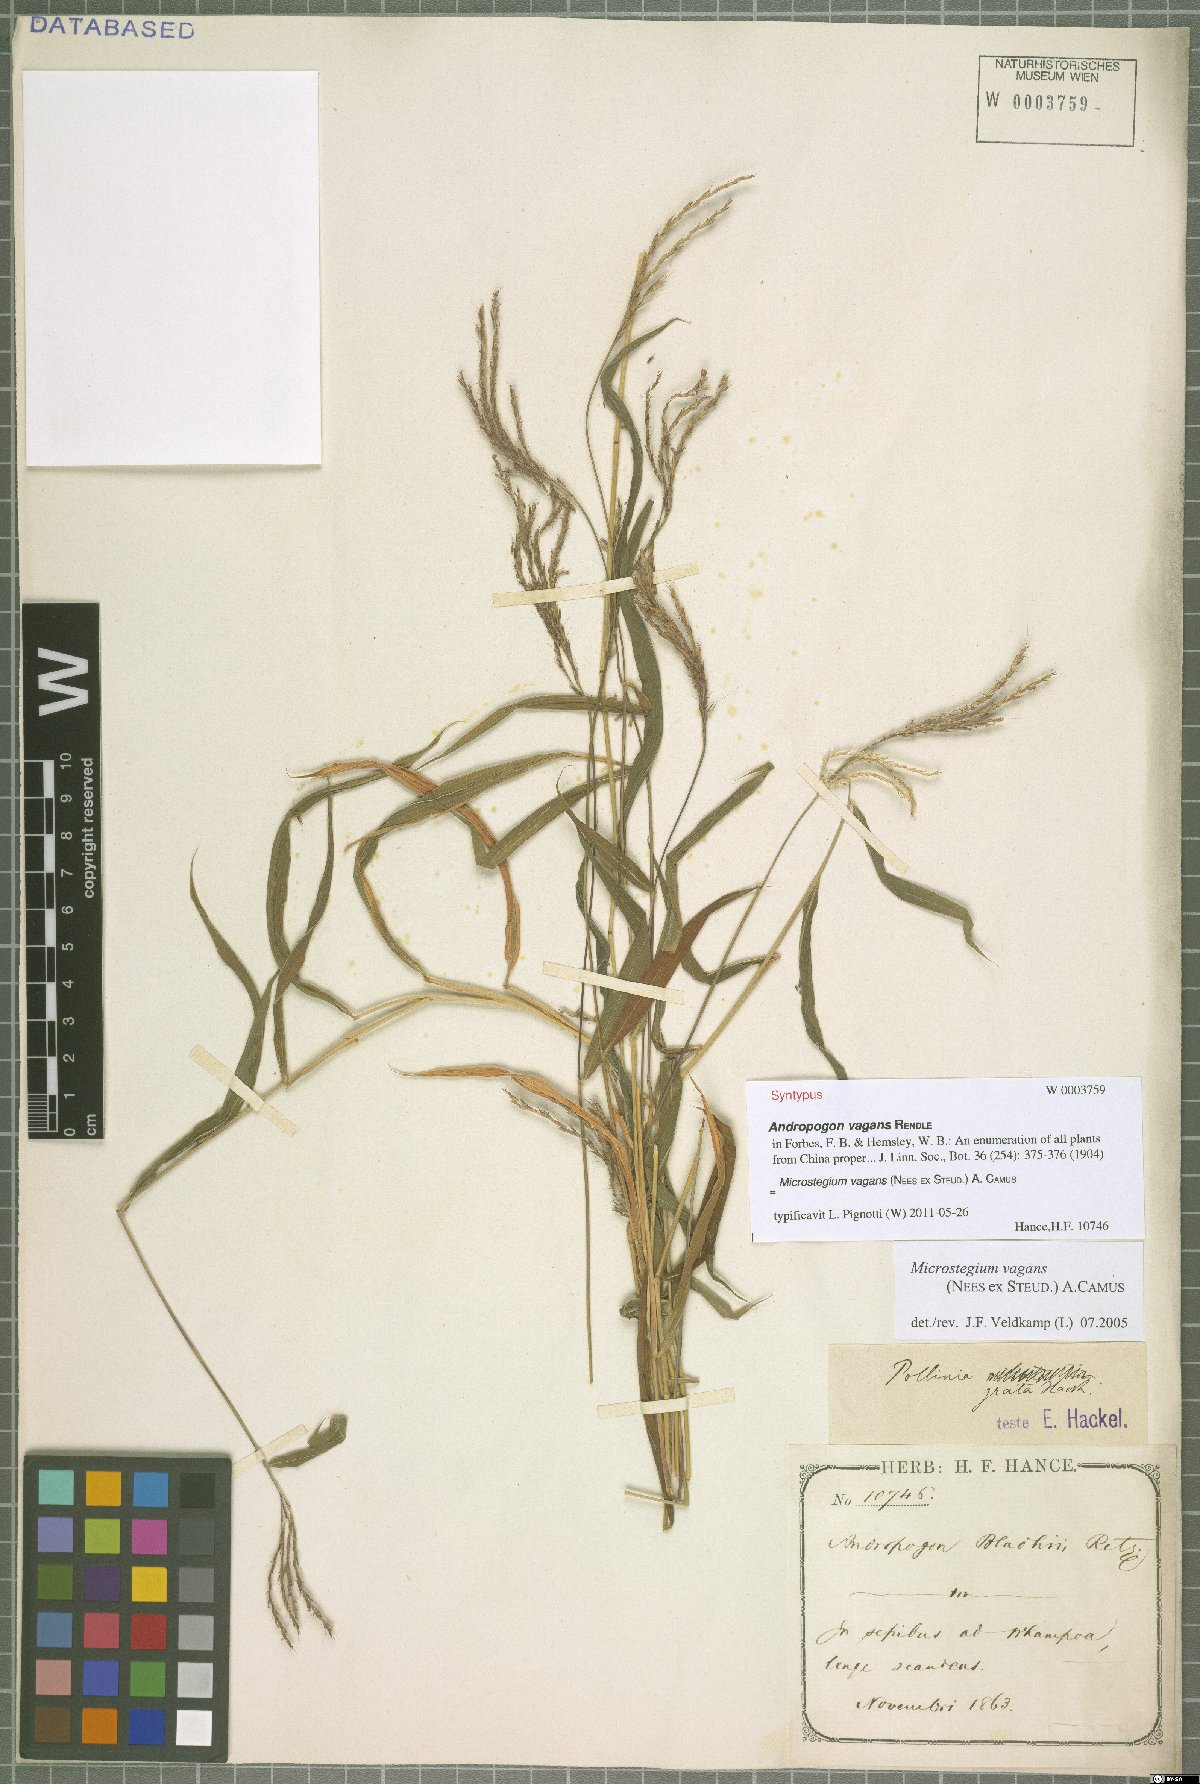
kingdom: Plantae
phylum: Tracheophyta
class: Liliopsida
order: Poales
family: Poaceae
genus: Microstegium
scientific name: Microstegium fasciculatum
